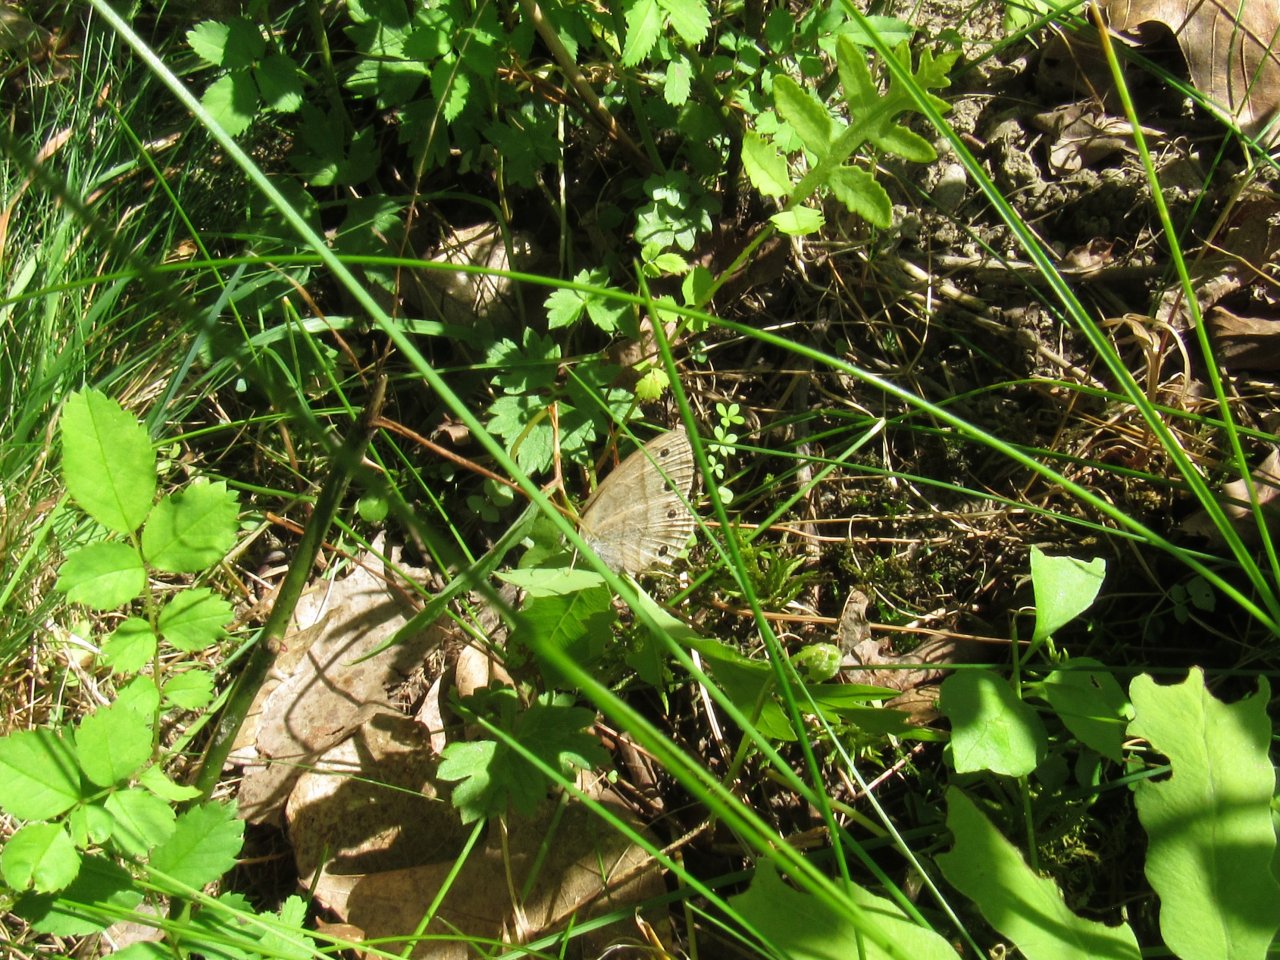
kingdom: Animalia
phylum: Arthropoda
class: Insecta
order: Lepidoptera
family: Nymphalidae
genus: Euptychia
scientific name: Euptychia cymela
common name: Little Wood Satyr
